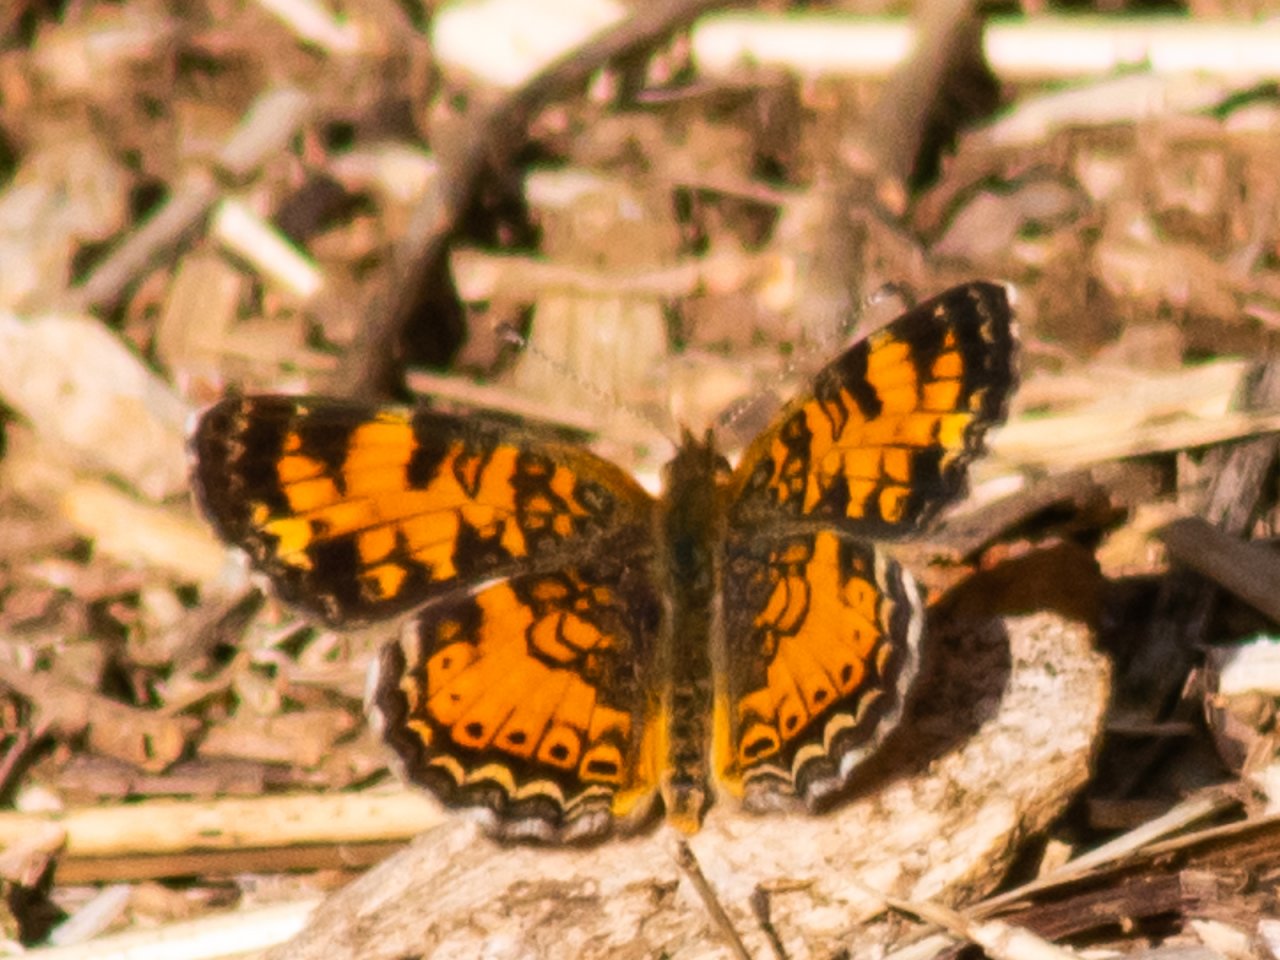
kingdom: Animalia
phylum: Arthropoda
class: Insecta
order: Lepidoptera
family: Nymphalidae
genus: Phyciodes
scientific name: Phyciodes tharos
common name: Pearl Crescent
